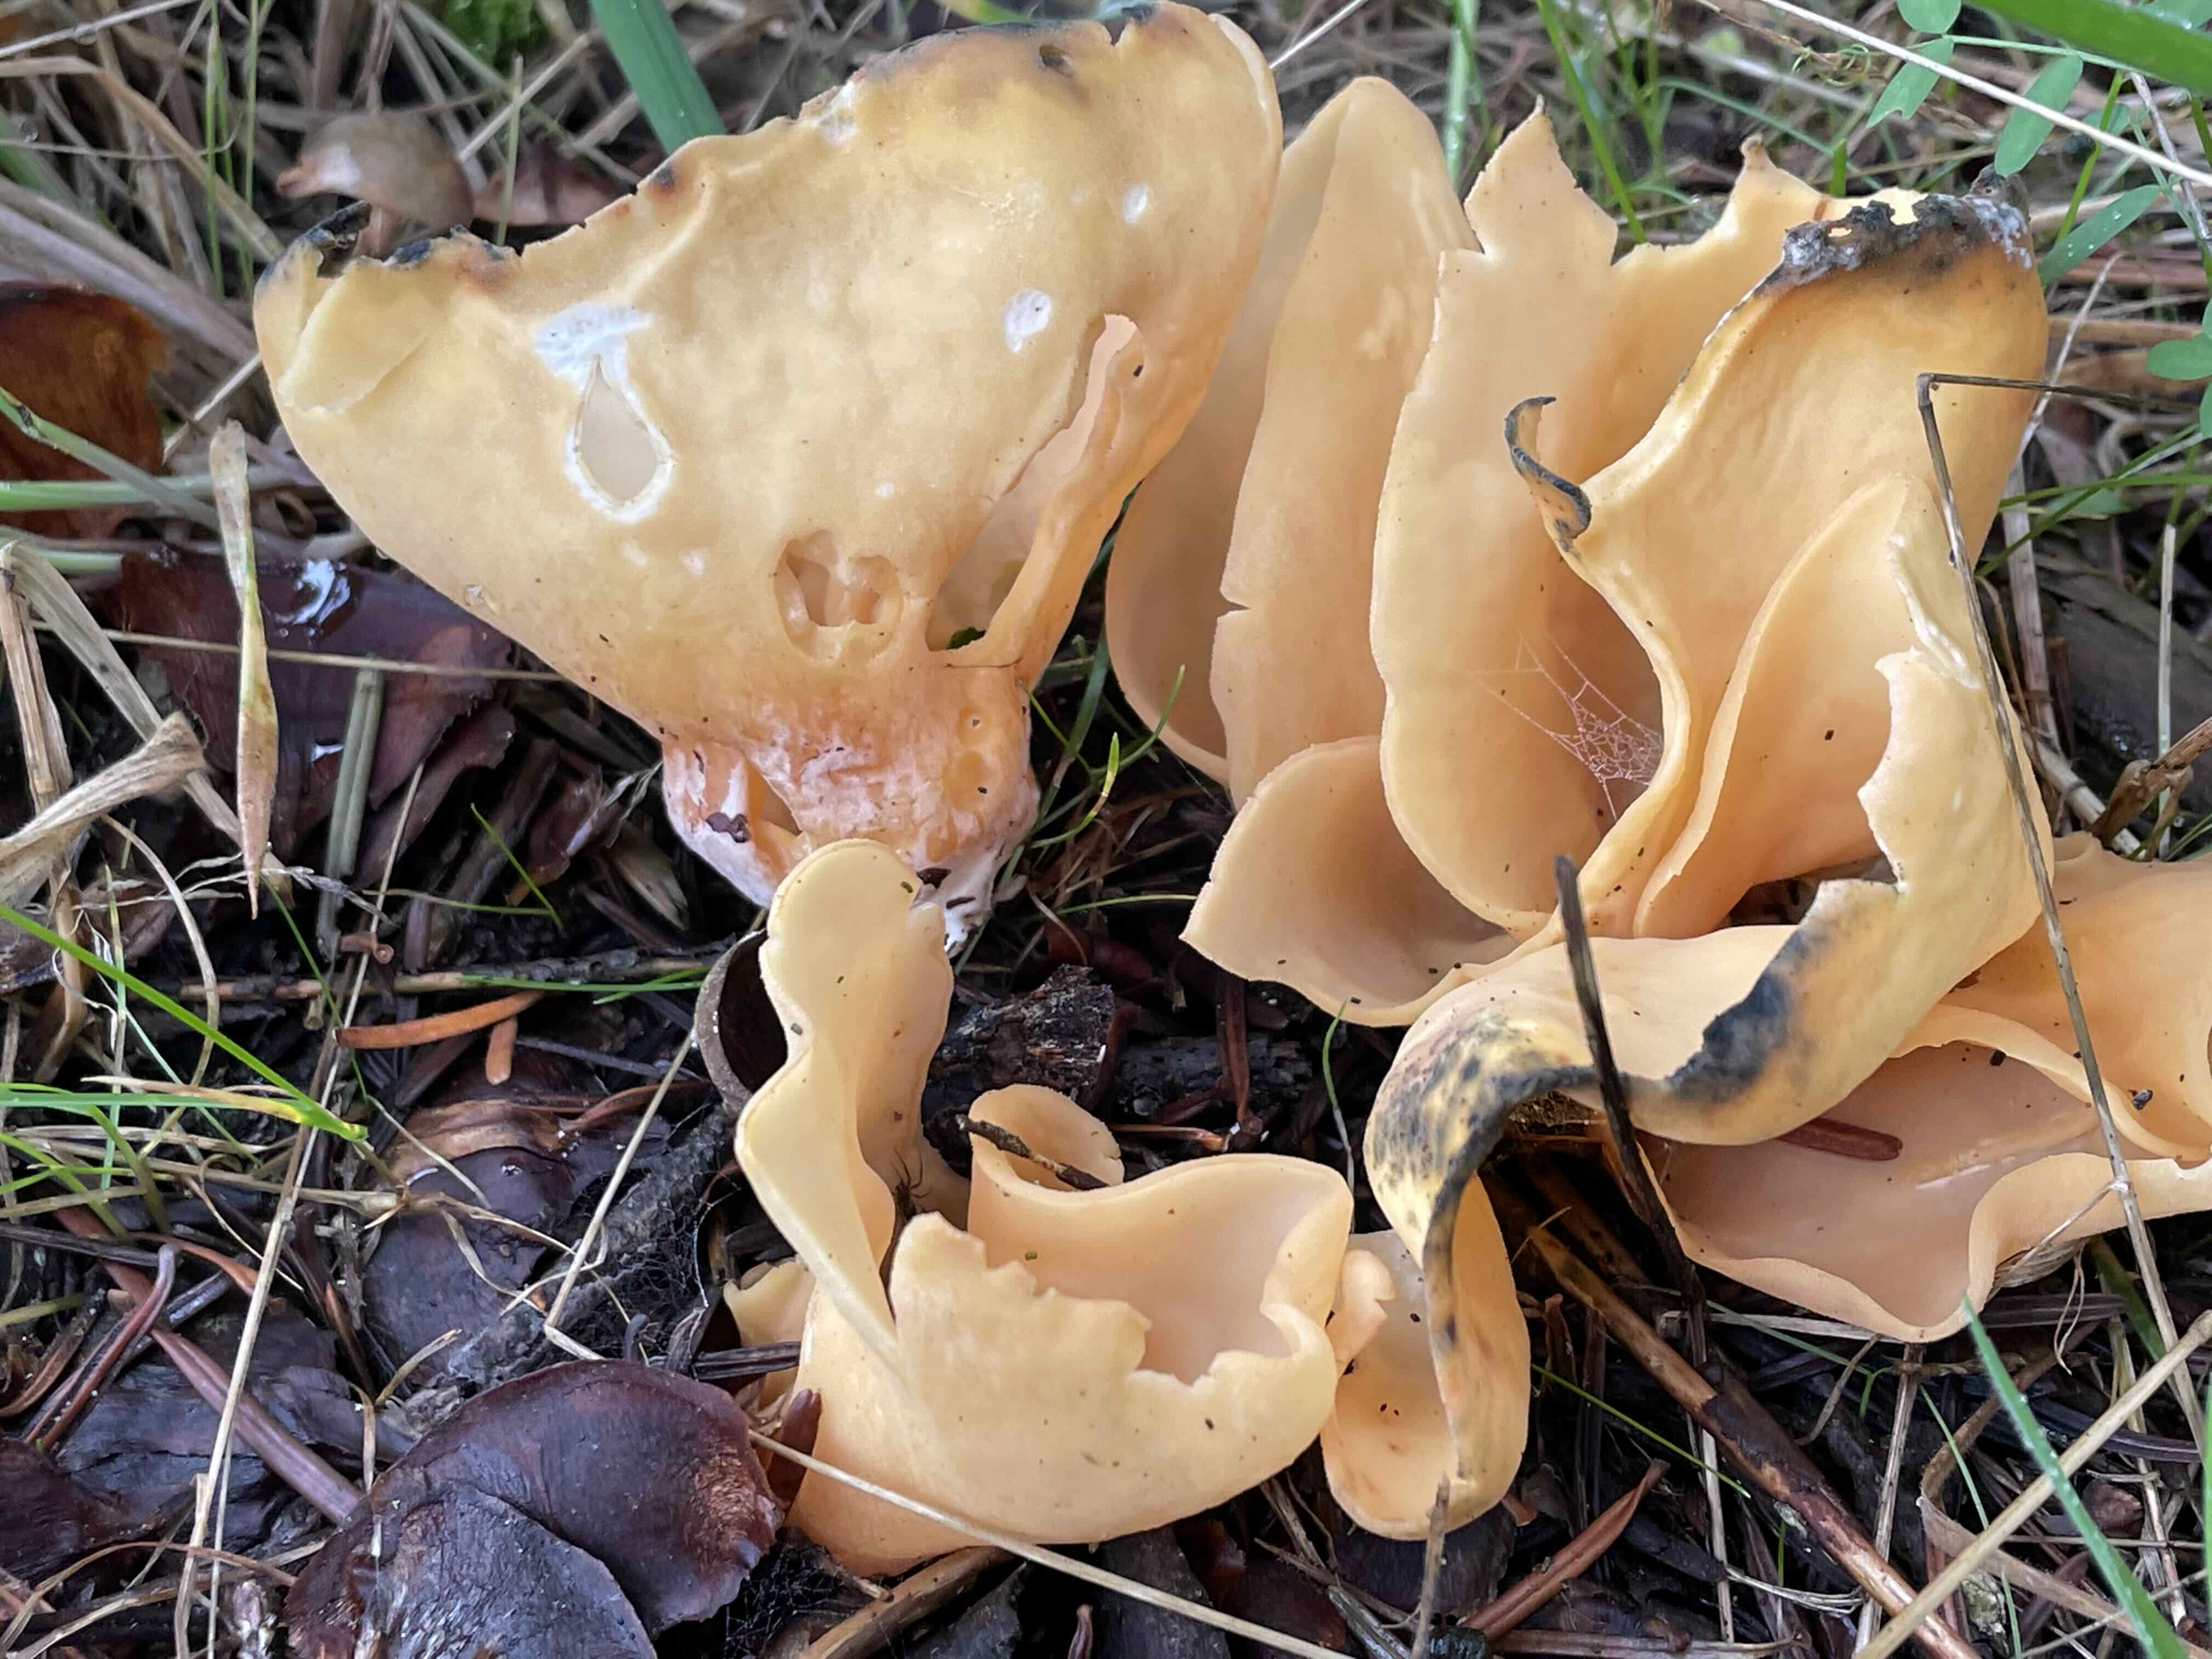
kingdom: Fungi
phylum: Ascomycota
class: Pezizomycetes
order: Pezizales
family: Otideaceae
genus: Otidea
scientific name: Otidea onotica
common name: æsel-ørebæger
